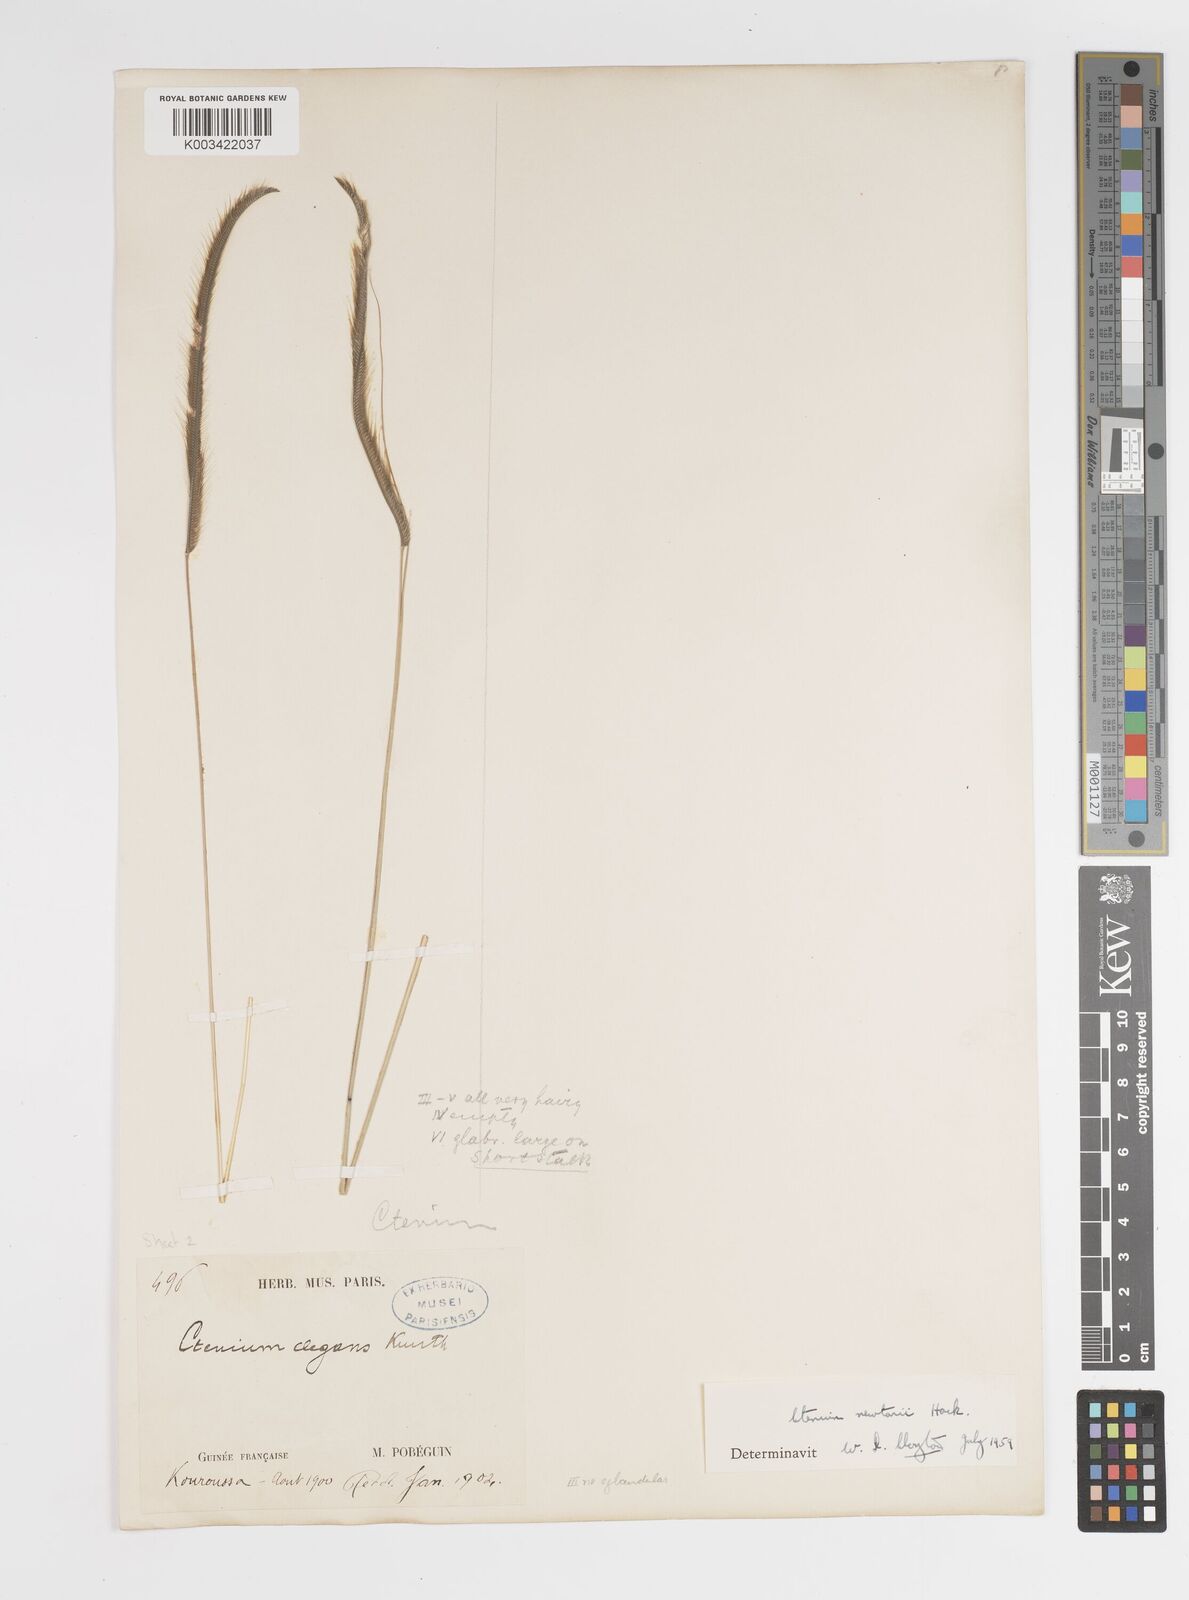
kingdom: Plantae
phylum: Tracheophyta
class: Liliopsida
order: Poales
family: Poaceae
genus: Ctenium
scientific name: Ctenium newtonii
